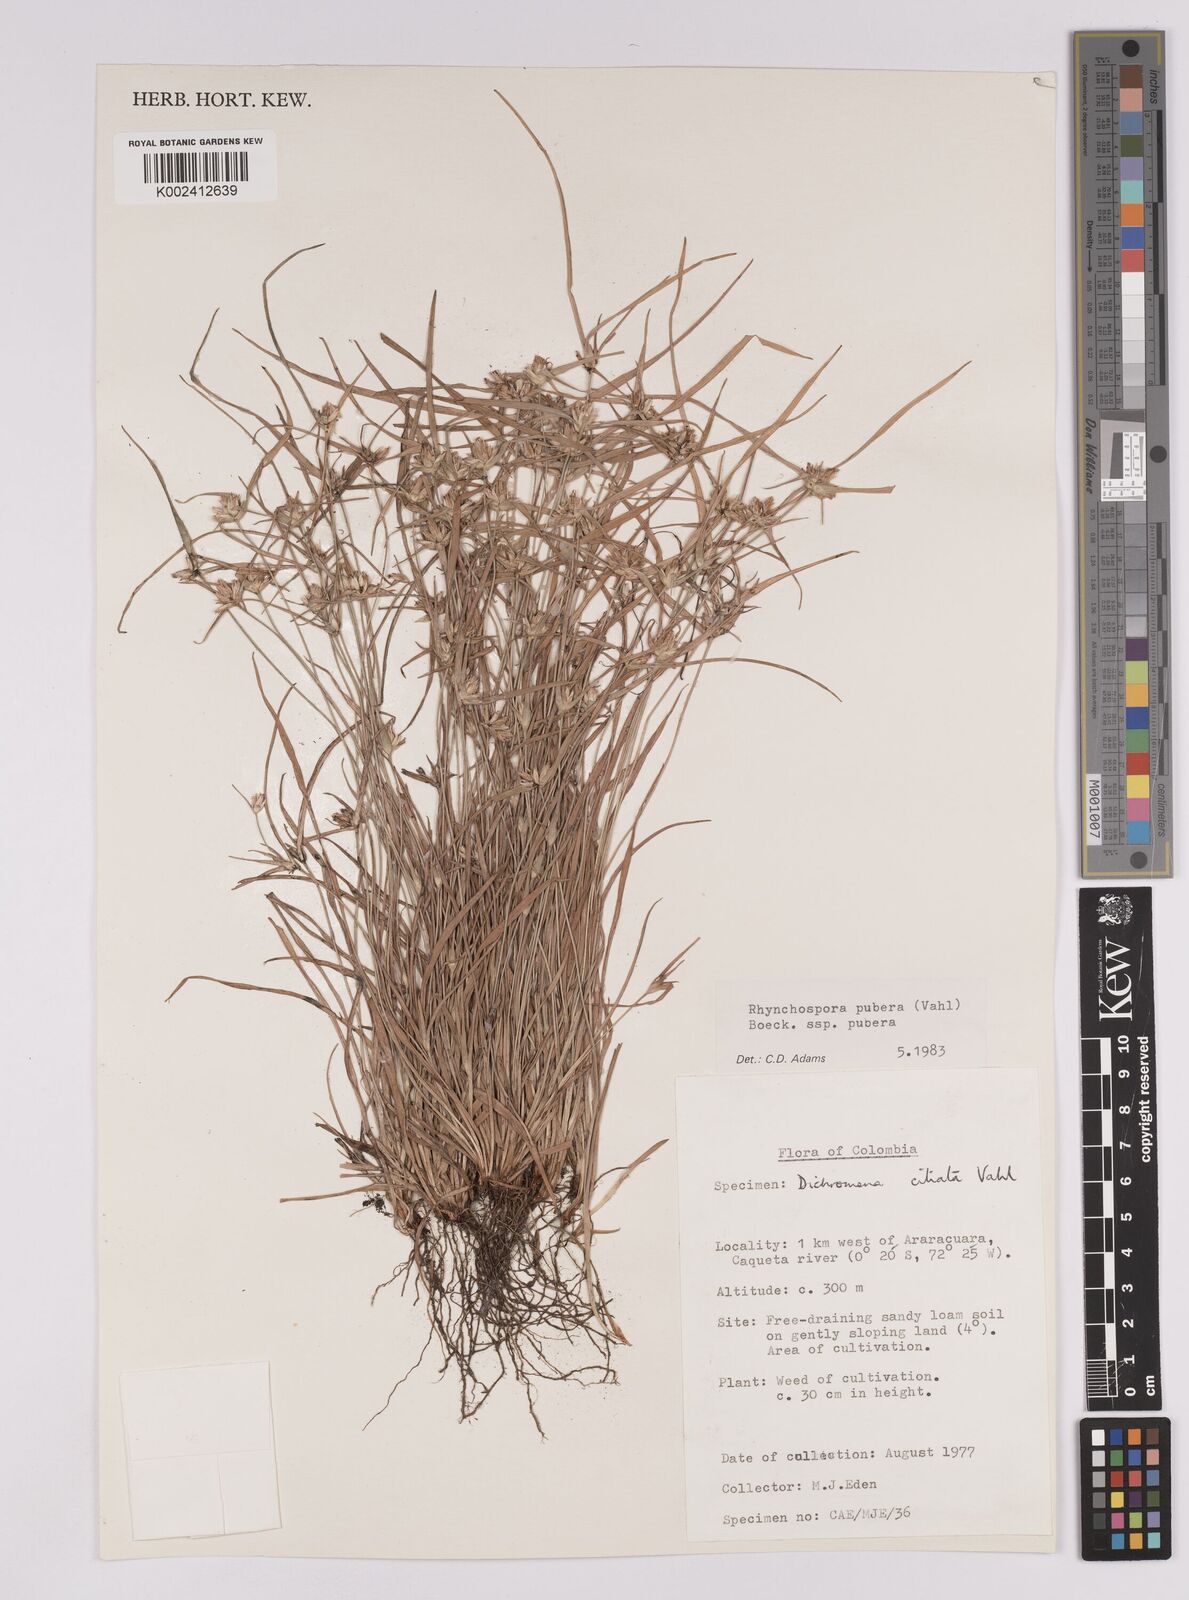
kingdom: Plantae
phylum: Tracheophyta
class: Liliopsida
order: Poales
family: Cyperaceae
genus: Rhynchospora
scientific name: Rhynchospora pubera
